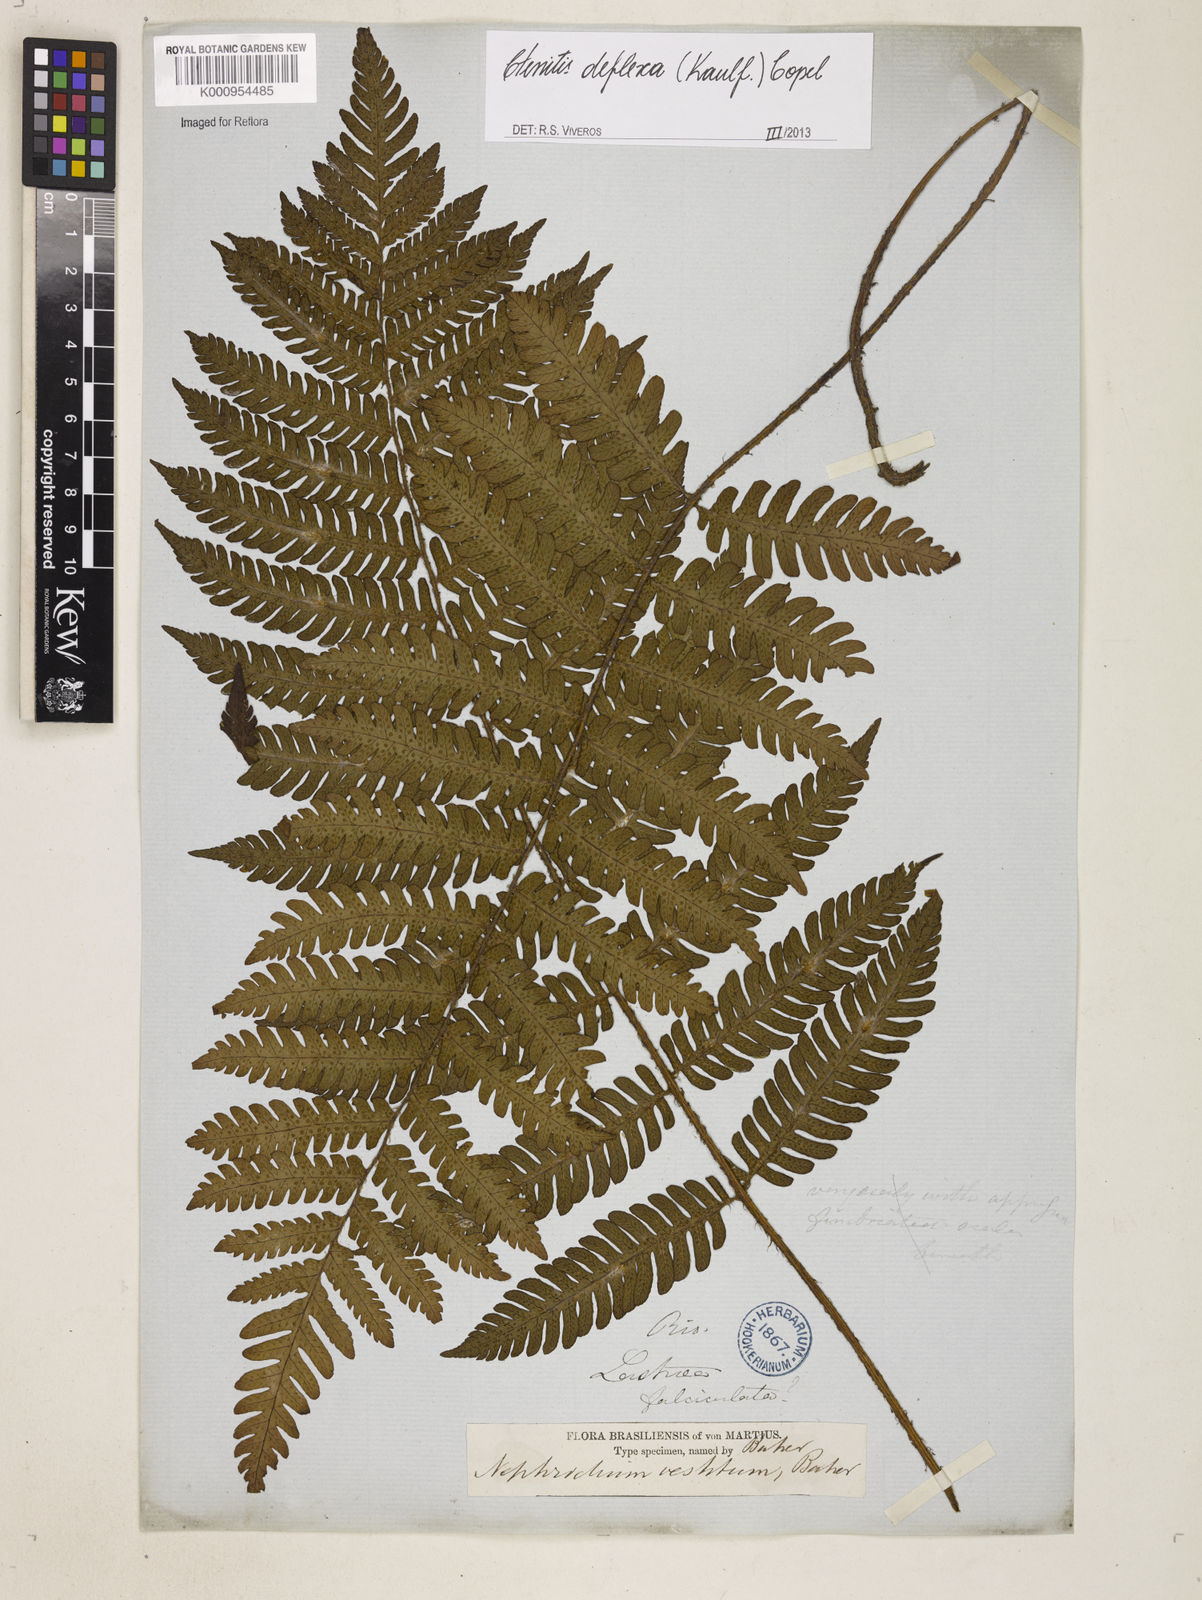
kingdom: Plantae
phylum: Tracheophyta
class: Polypodiopsida
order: Polypodiales
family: Dryopteridaceae
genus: Ctenitis
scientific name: Ctenitis deflexa
